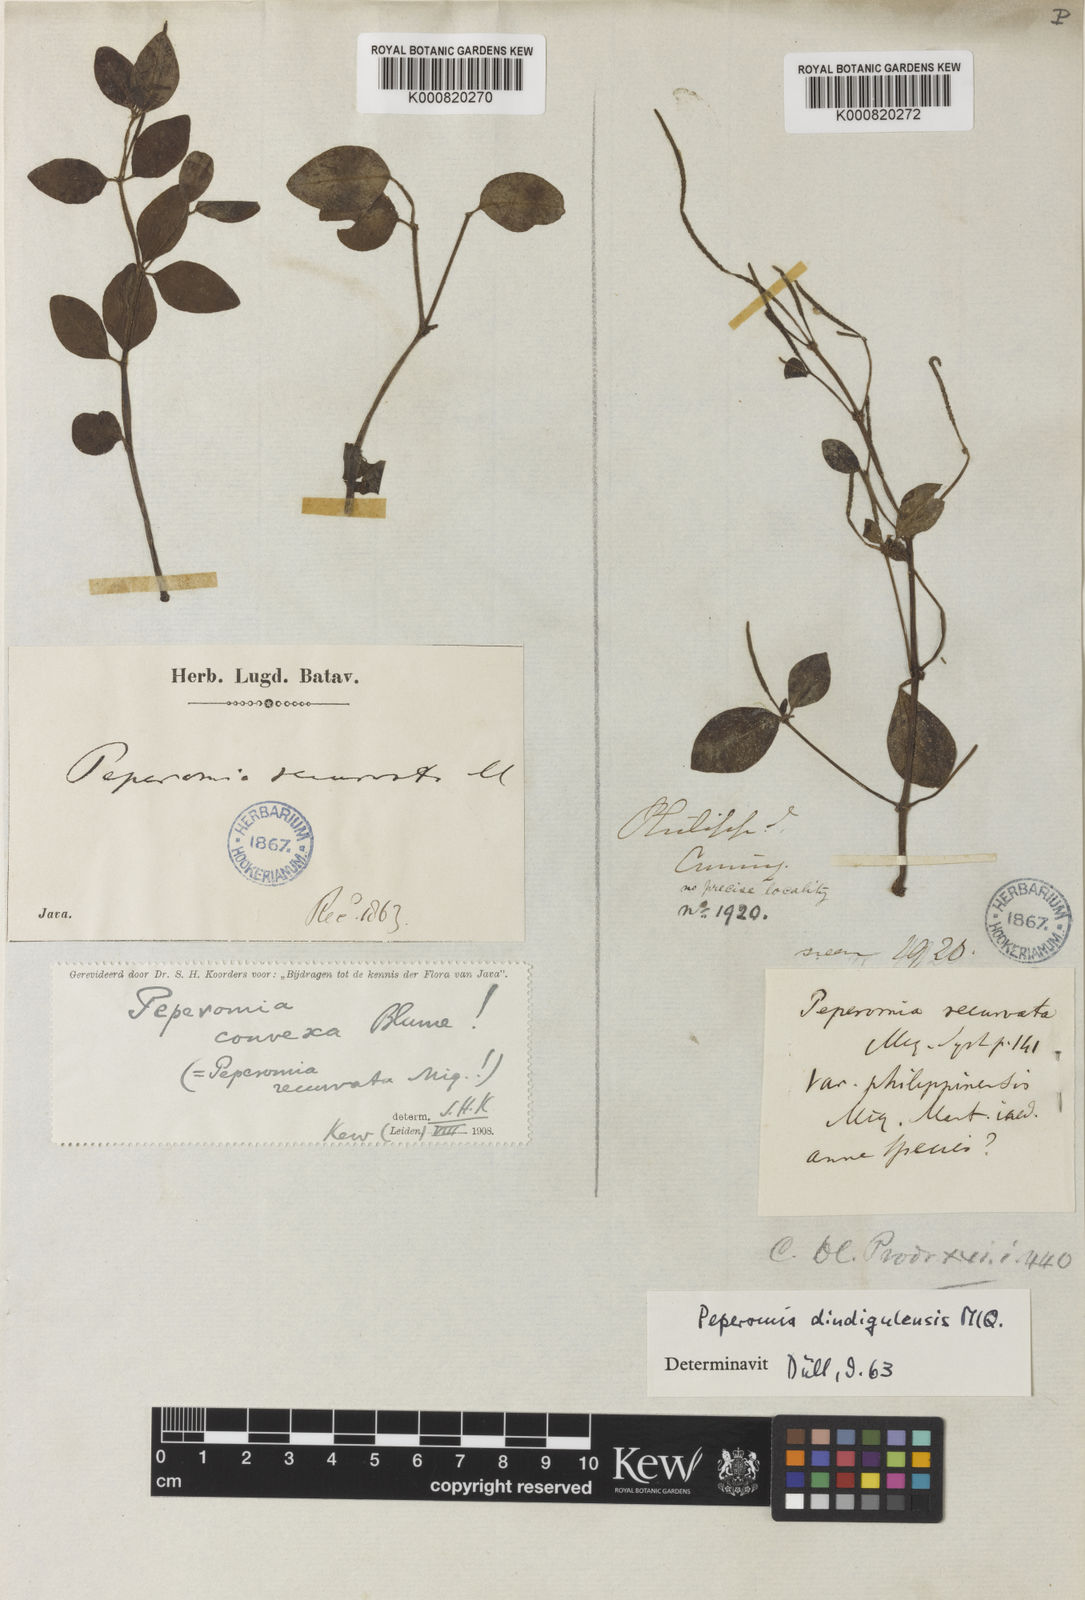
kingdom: Plantae
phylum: Tracheophyta
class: Magnoliopsida
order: Piperales
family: Piperaceae
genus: Peperomia
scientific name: Peperomia convexa
